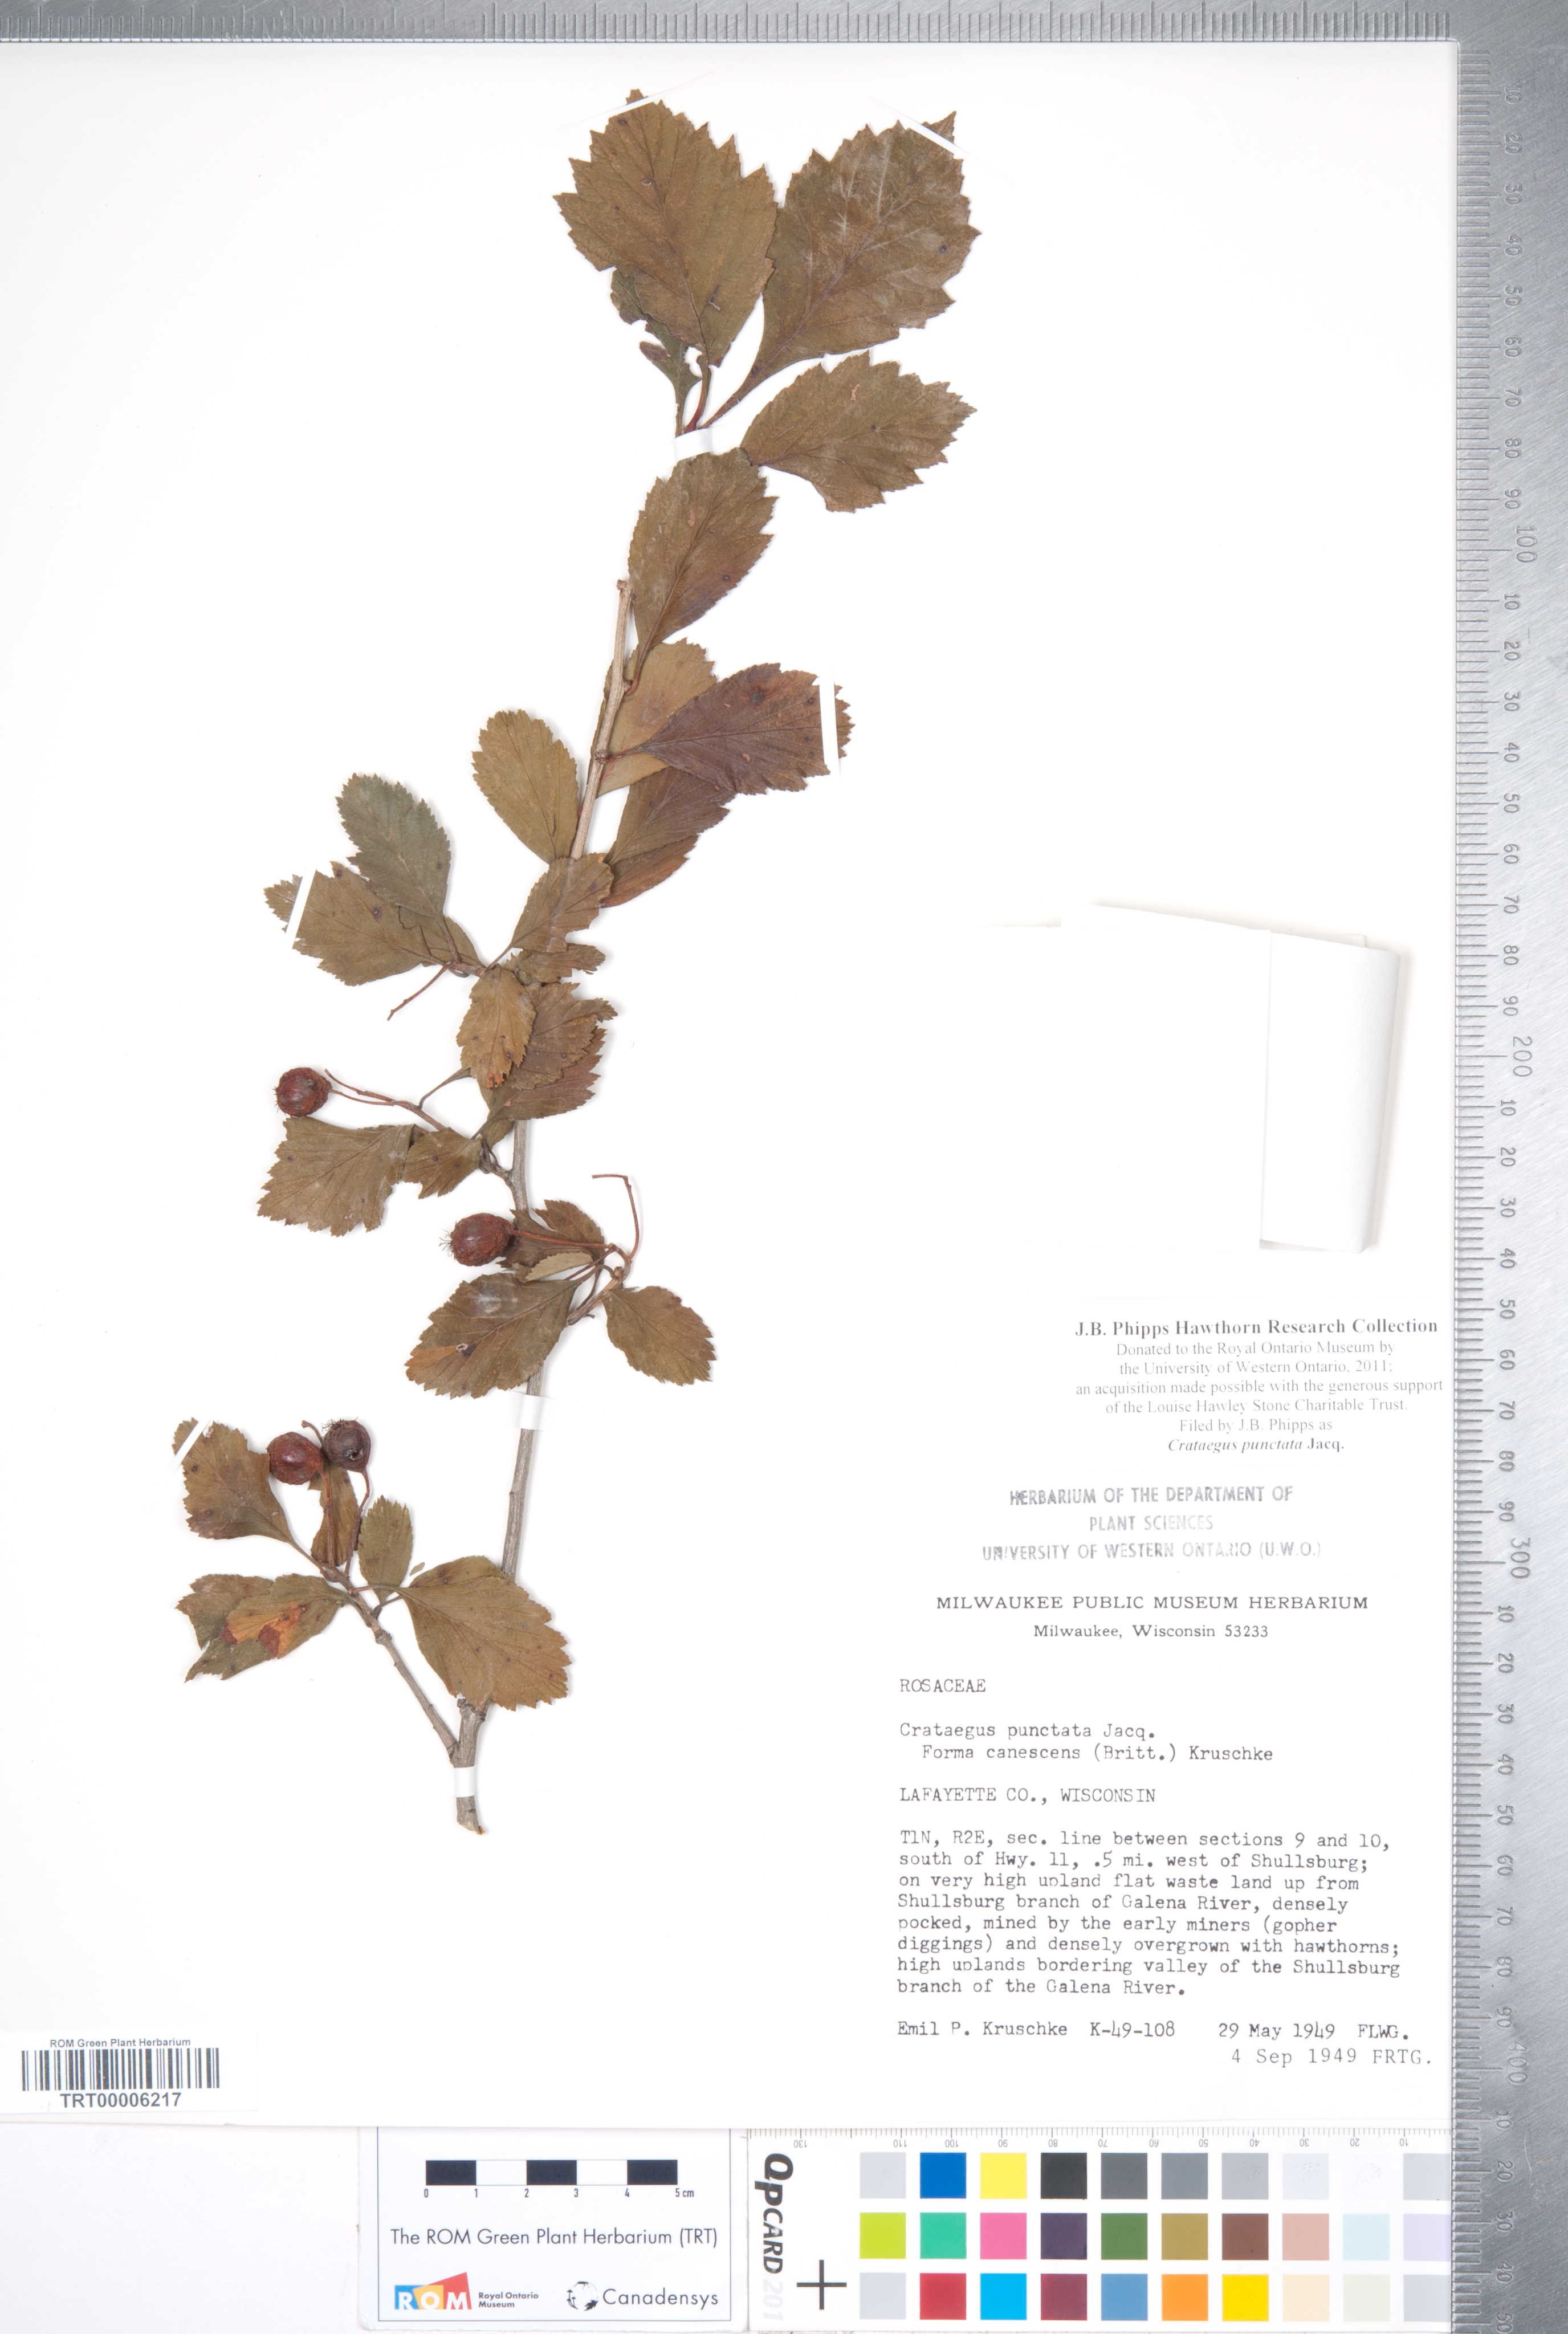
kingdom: Plantae
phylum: Tracheophyta
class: Magnoliopsida
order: Rosales
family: Rosaceae
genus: Crataegus
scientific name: Crataegus punctata
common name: Dotted hawthorn
